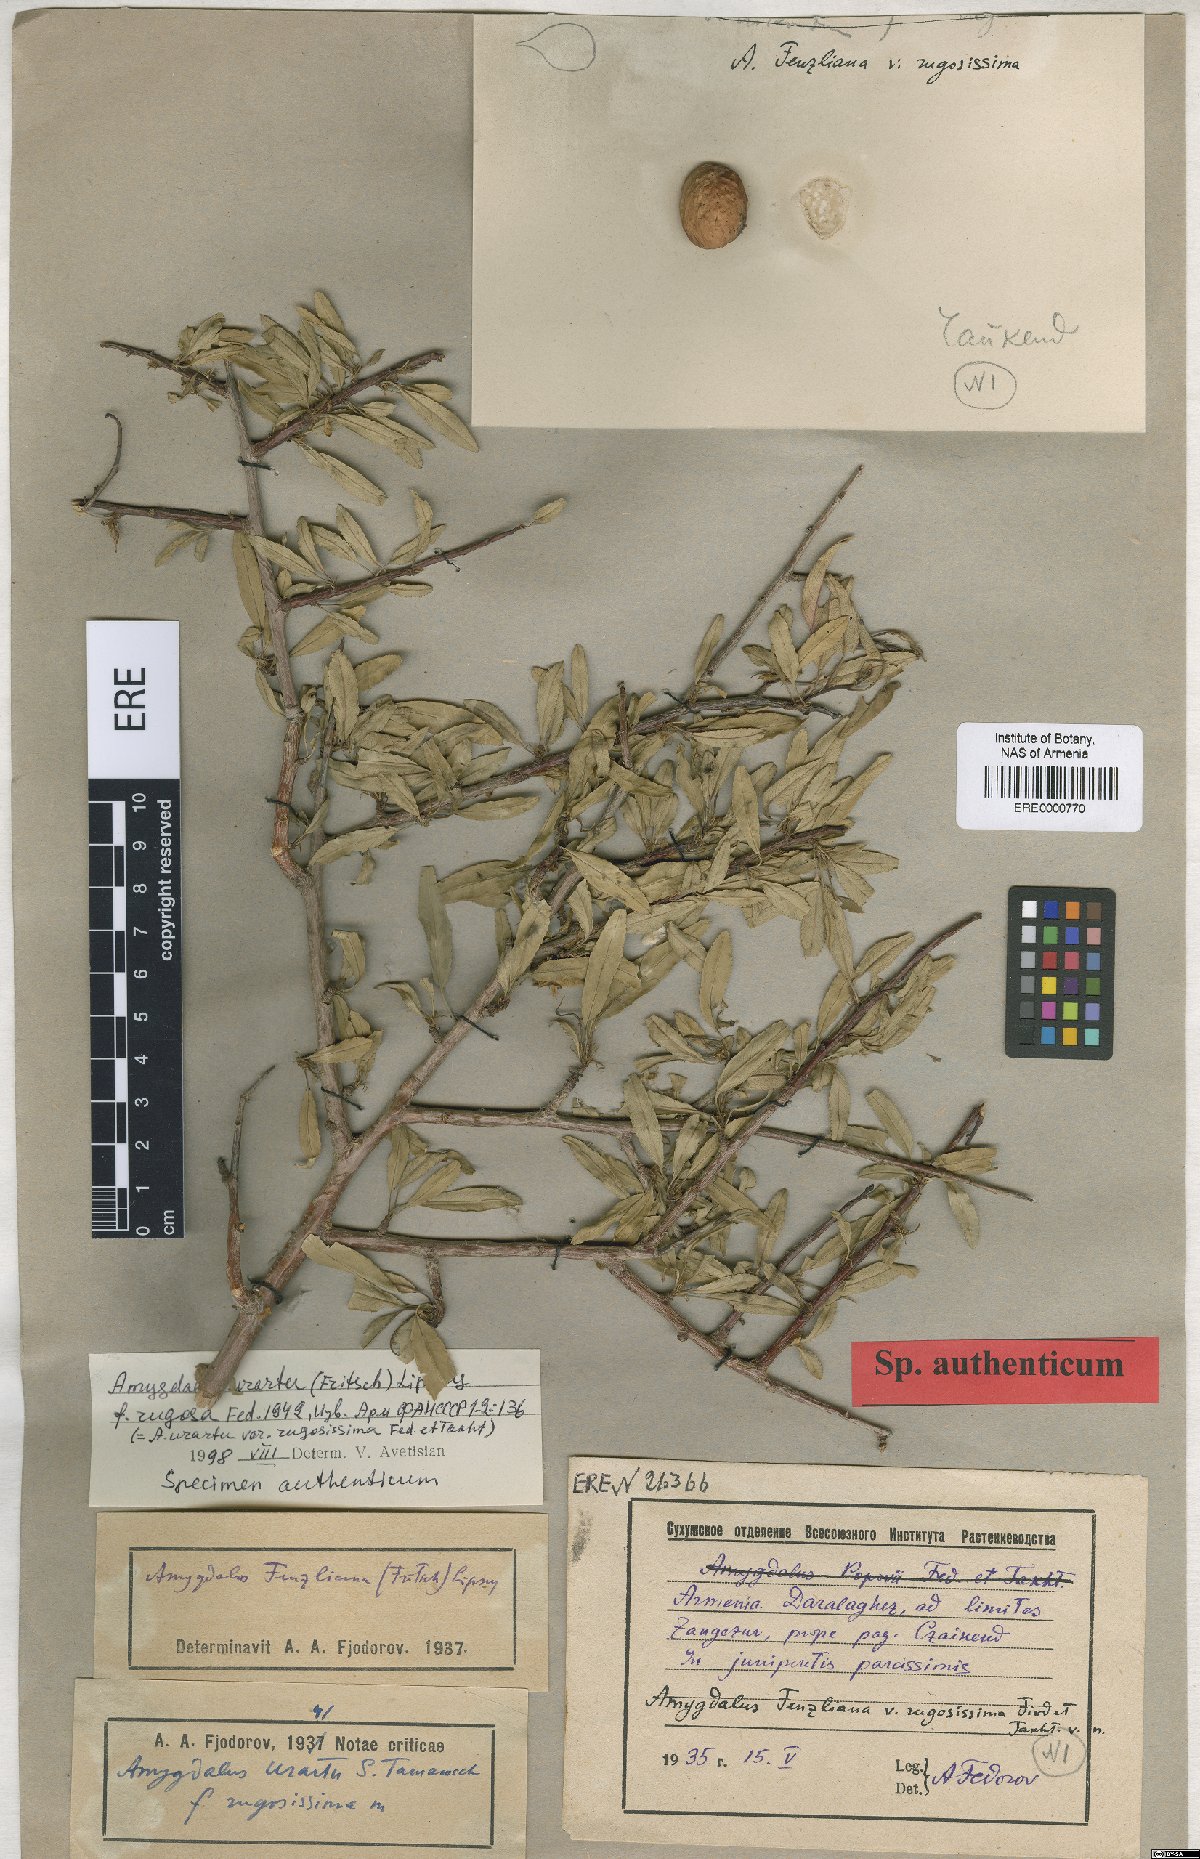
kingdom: Plantae
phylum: Tracheophyta
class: Magnoliopsida
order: Rosales
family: Rosaceae
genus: Prunus
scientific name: Prunus urartu
